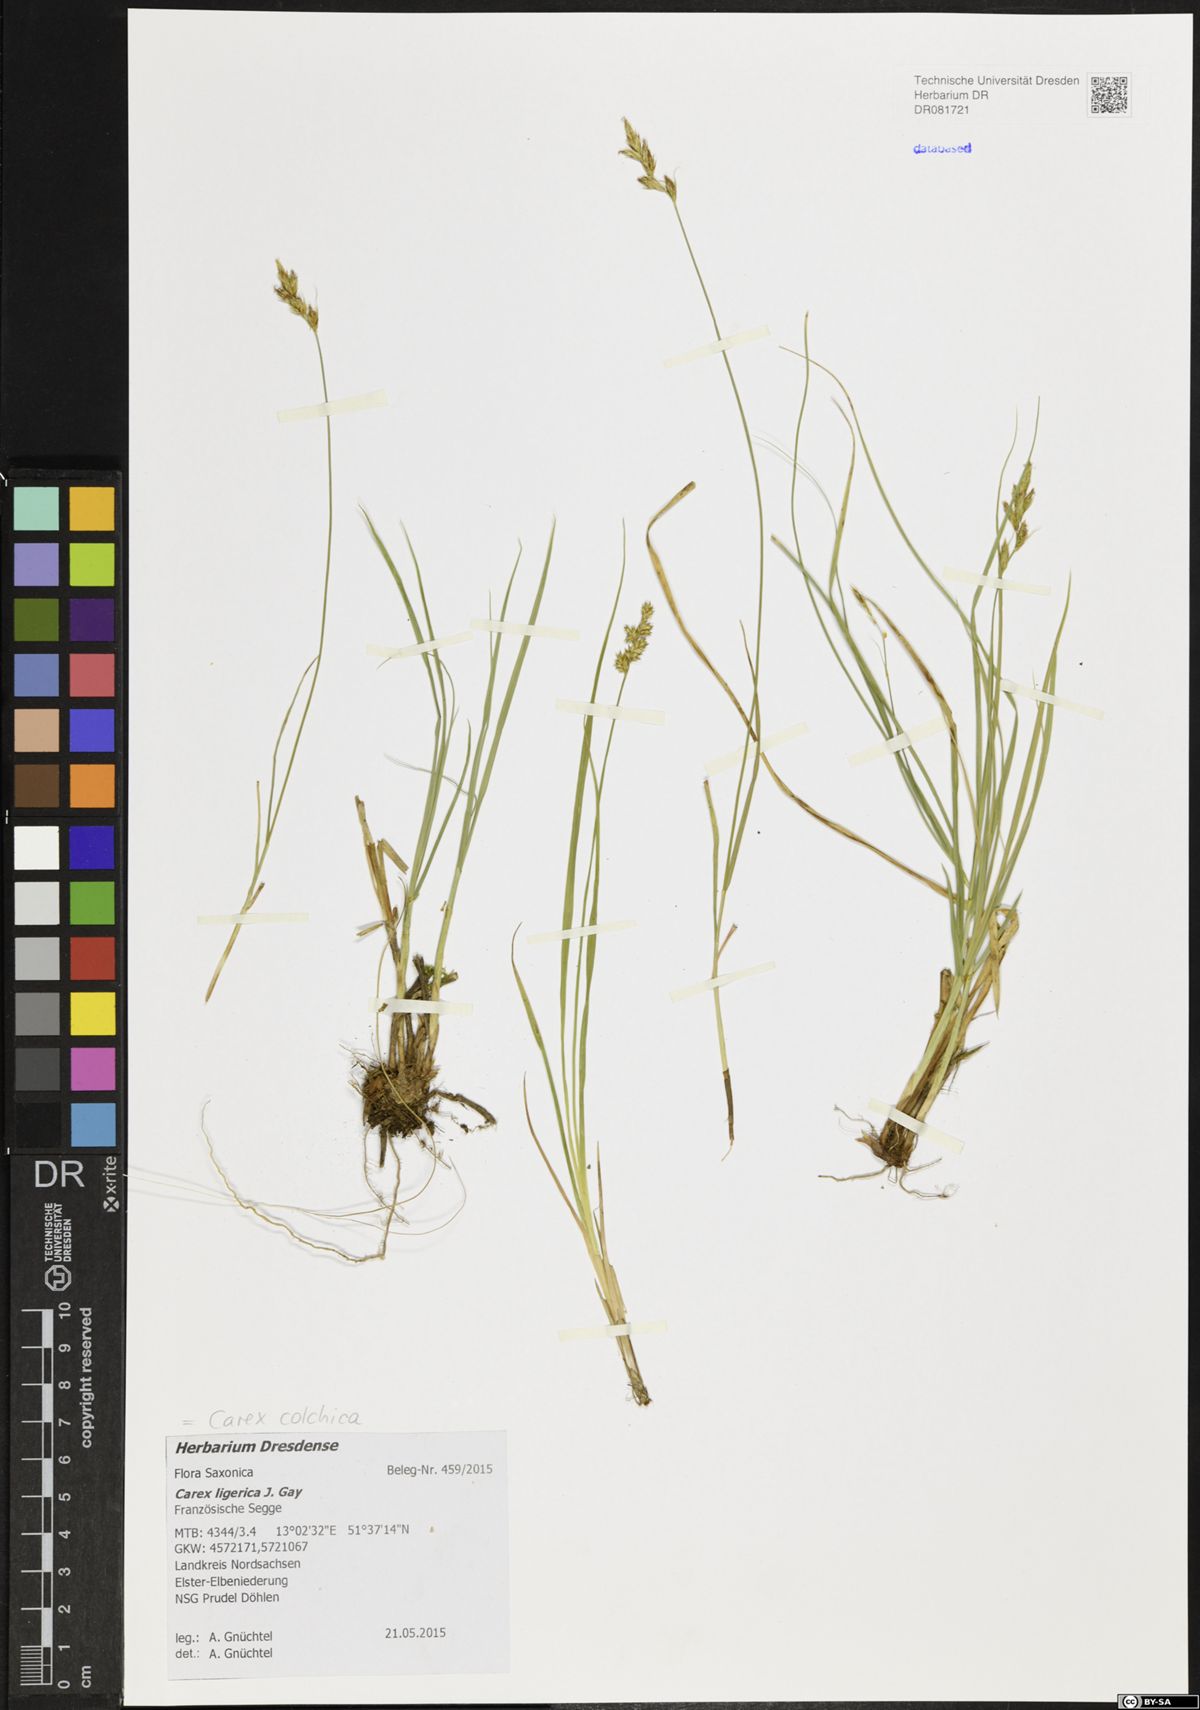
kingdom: Plantae
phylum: Tracheophyta
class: Liliopsida
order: Poales
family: Cyperaceae
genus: Carex
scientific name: Carex colchica
